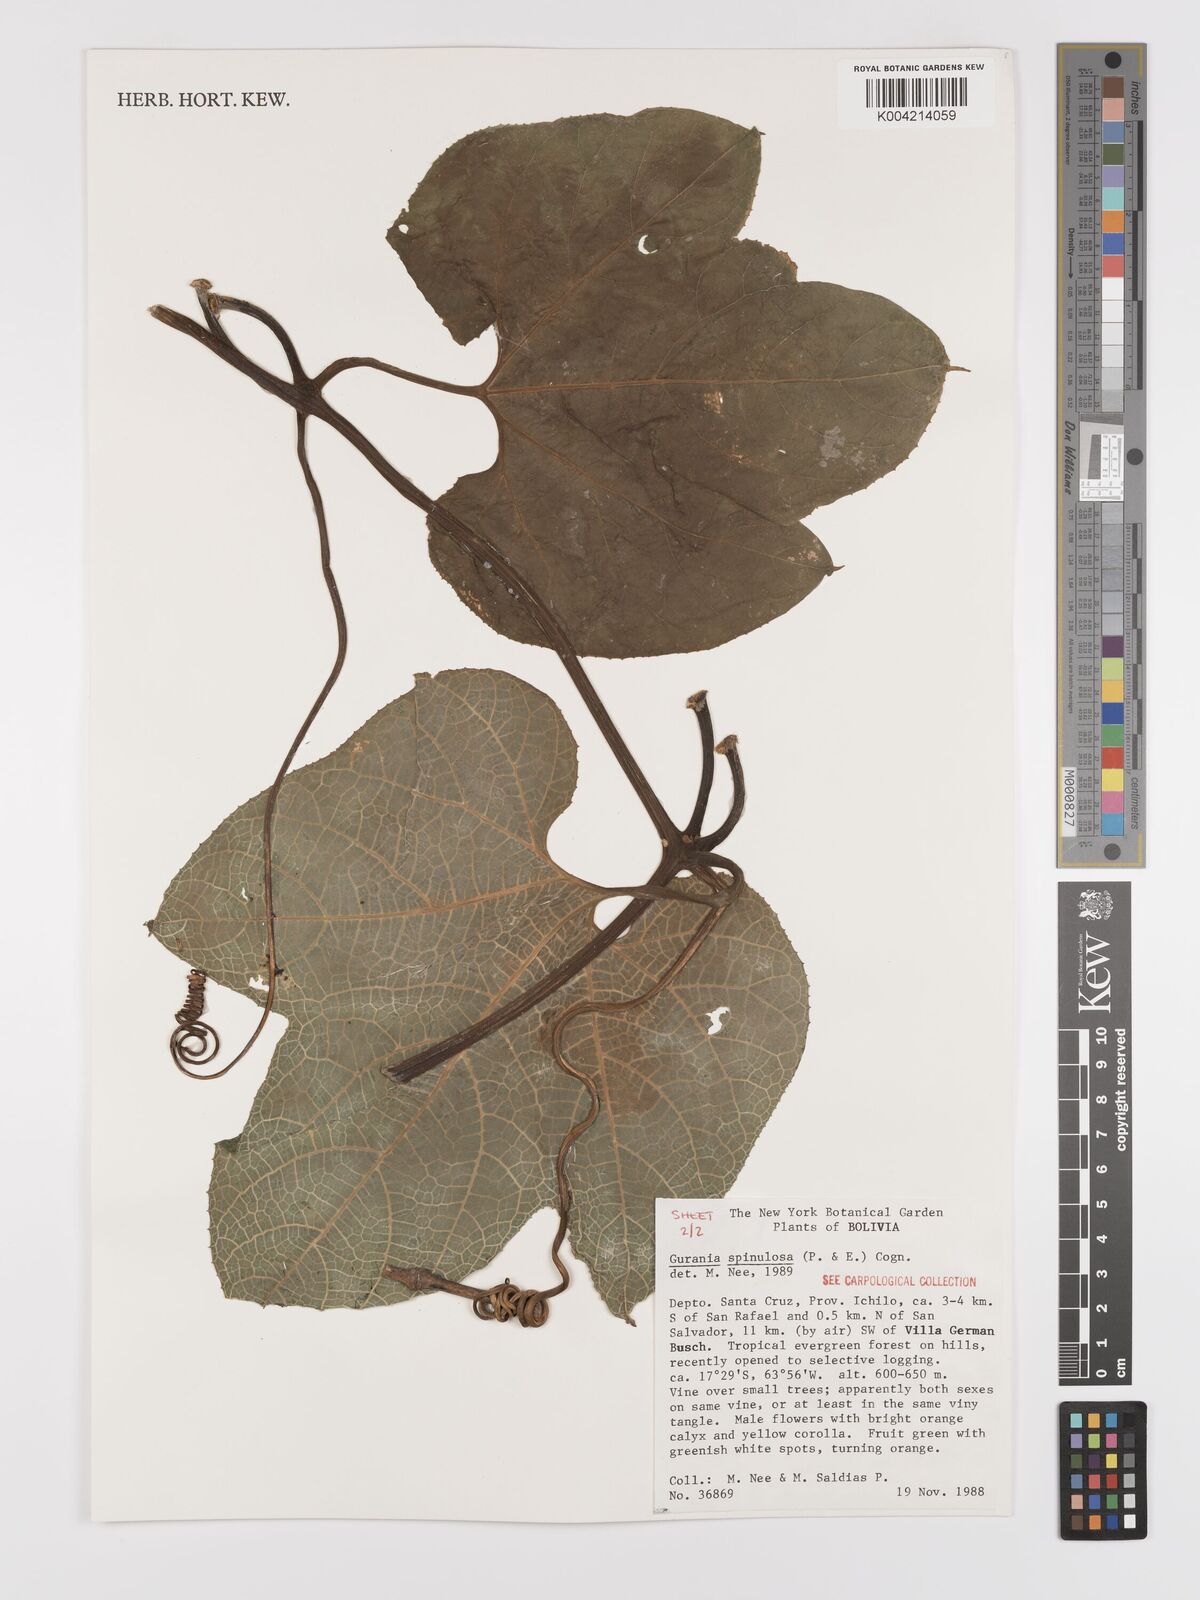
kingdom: Plantae
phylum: Tracheophyta
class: Magnoliopsida
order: Cucurbitales
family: Cucurbitaceae
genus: Gurania
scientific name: Gurania lobata
